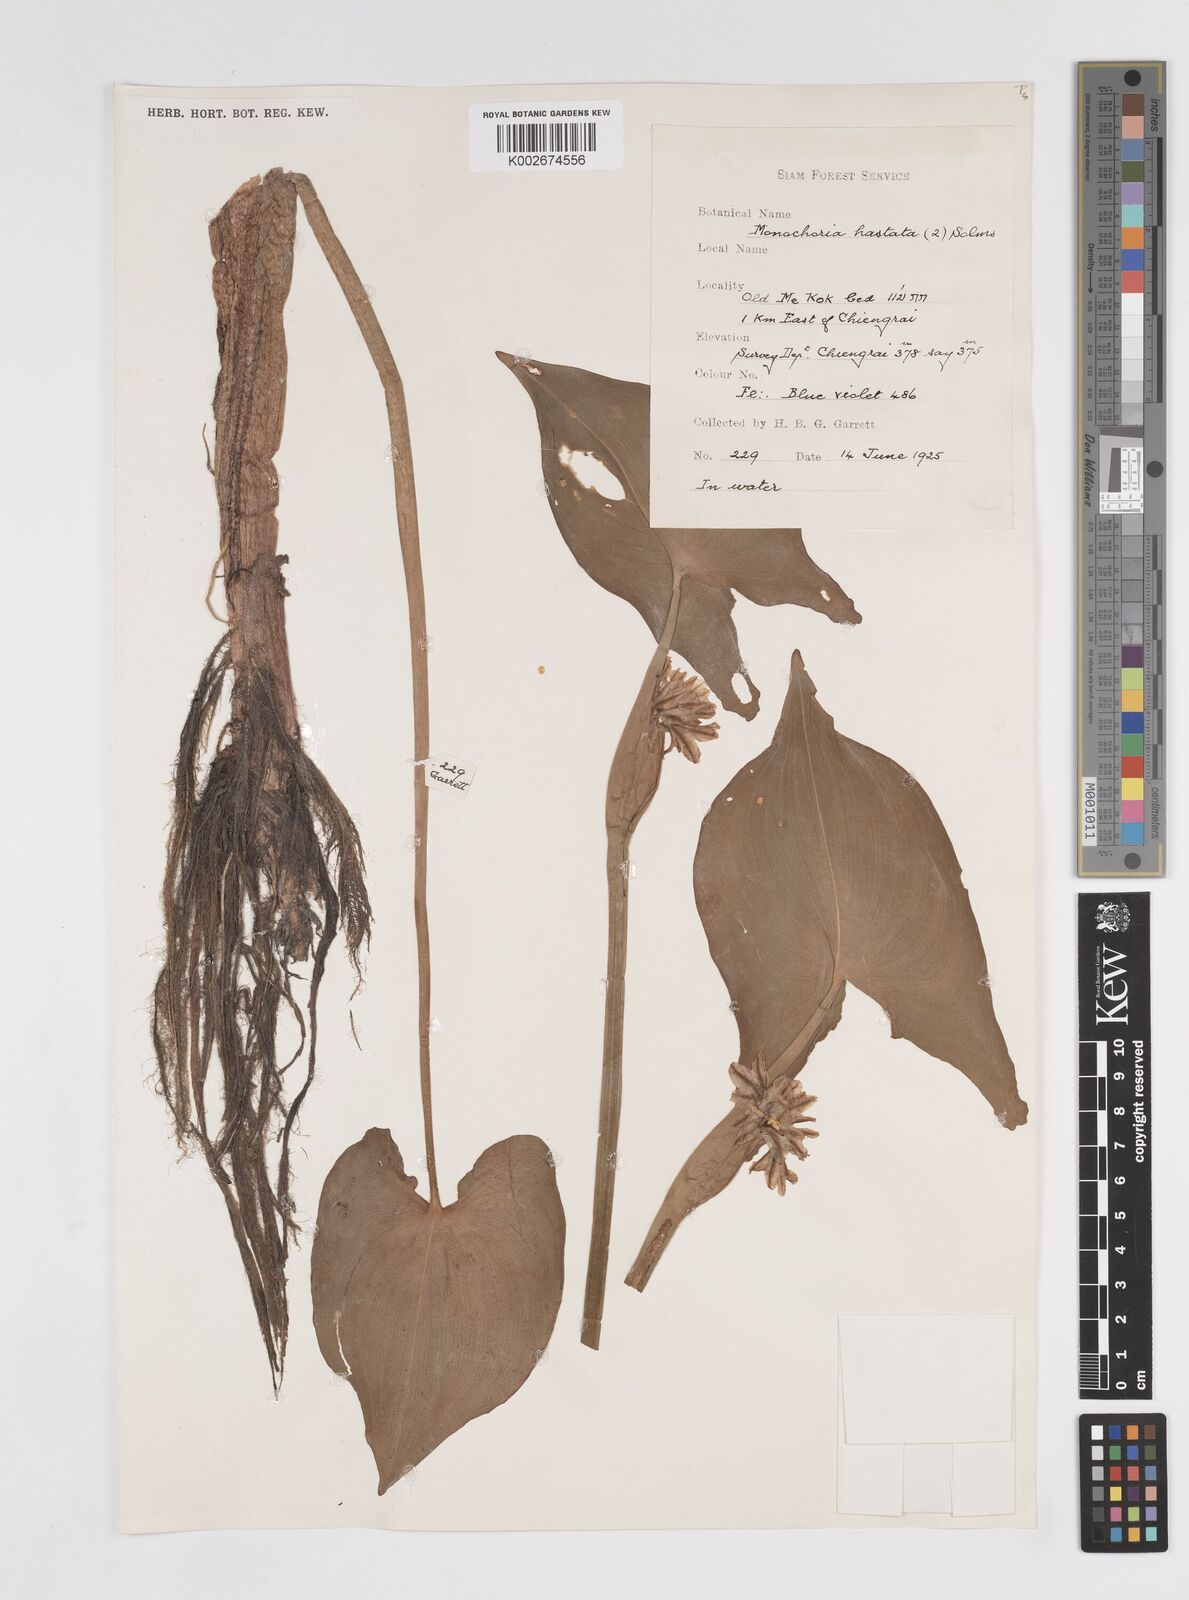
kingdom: Plantae
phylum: Tracheophyta
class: Liliopsida
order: Commelinales
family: Pontederiaceae
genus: Pontederia
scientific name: Pontederia hastata
